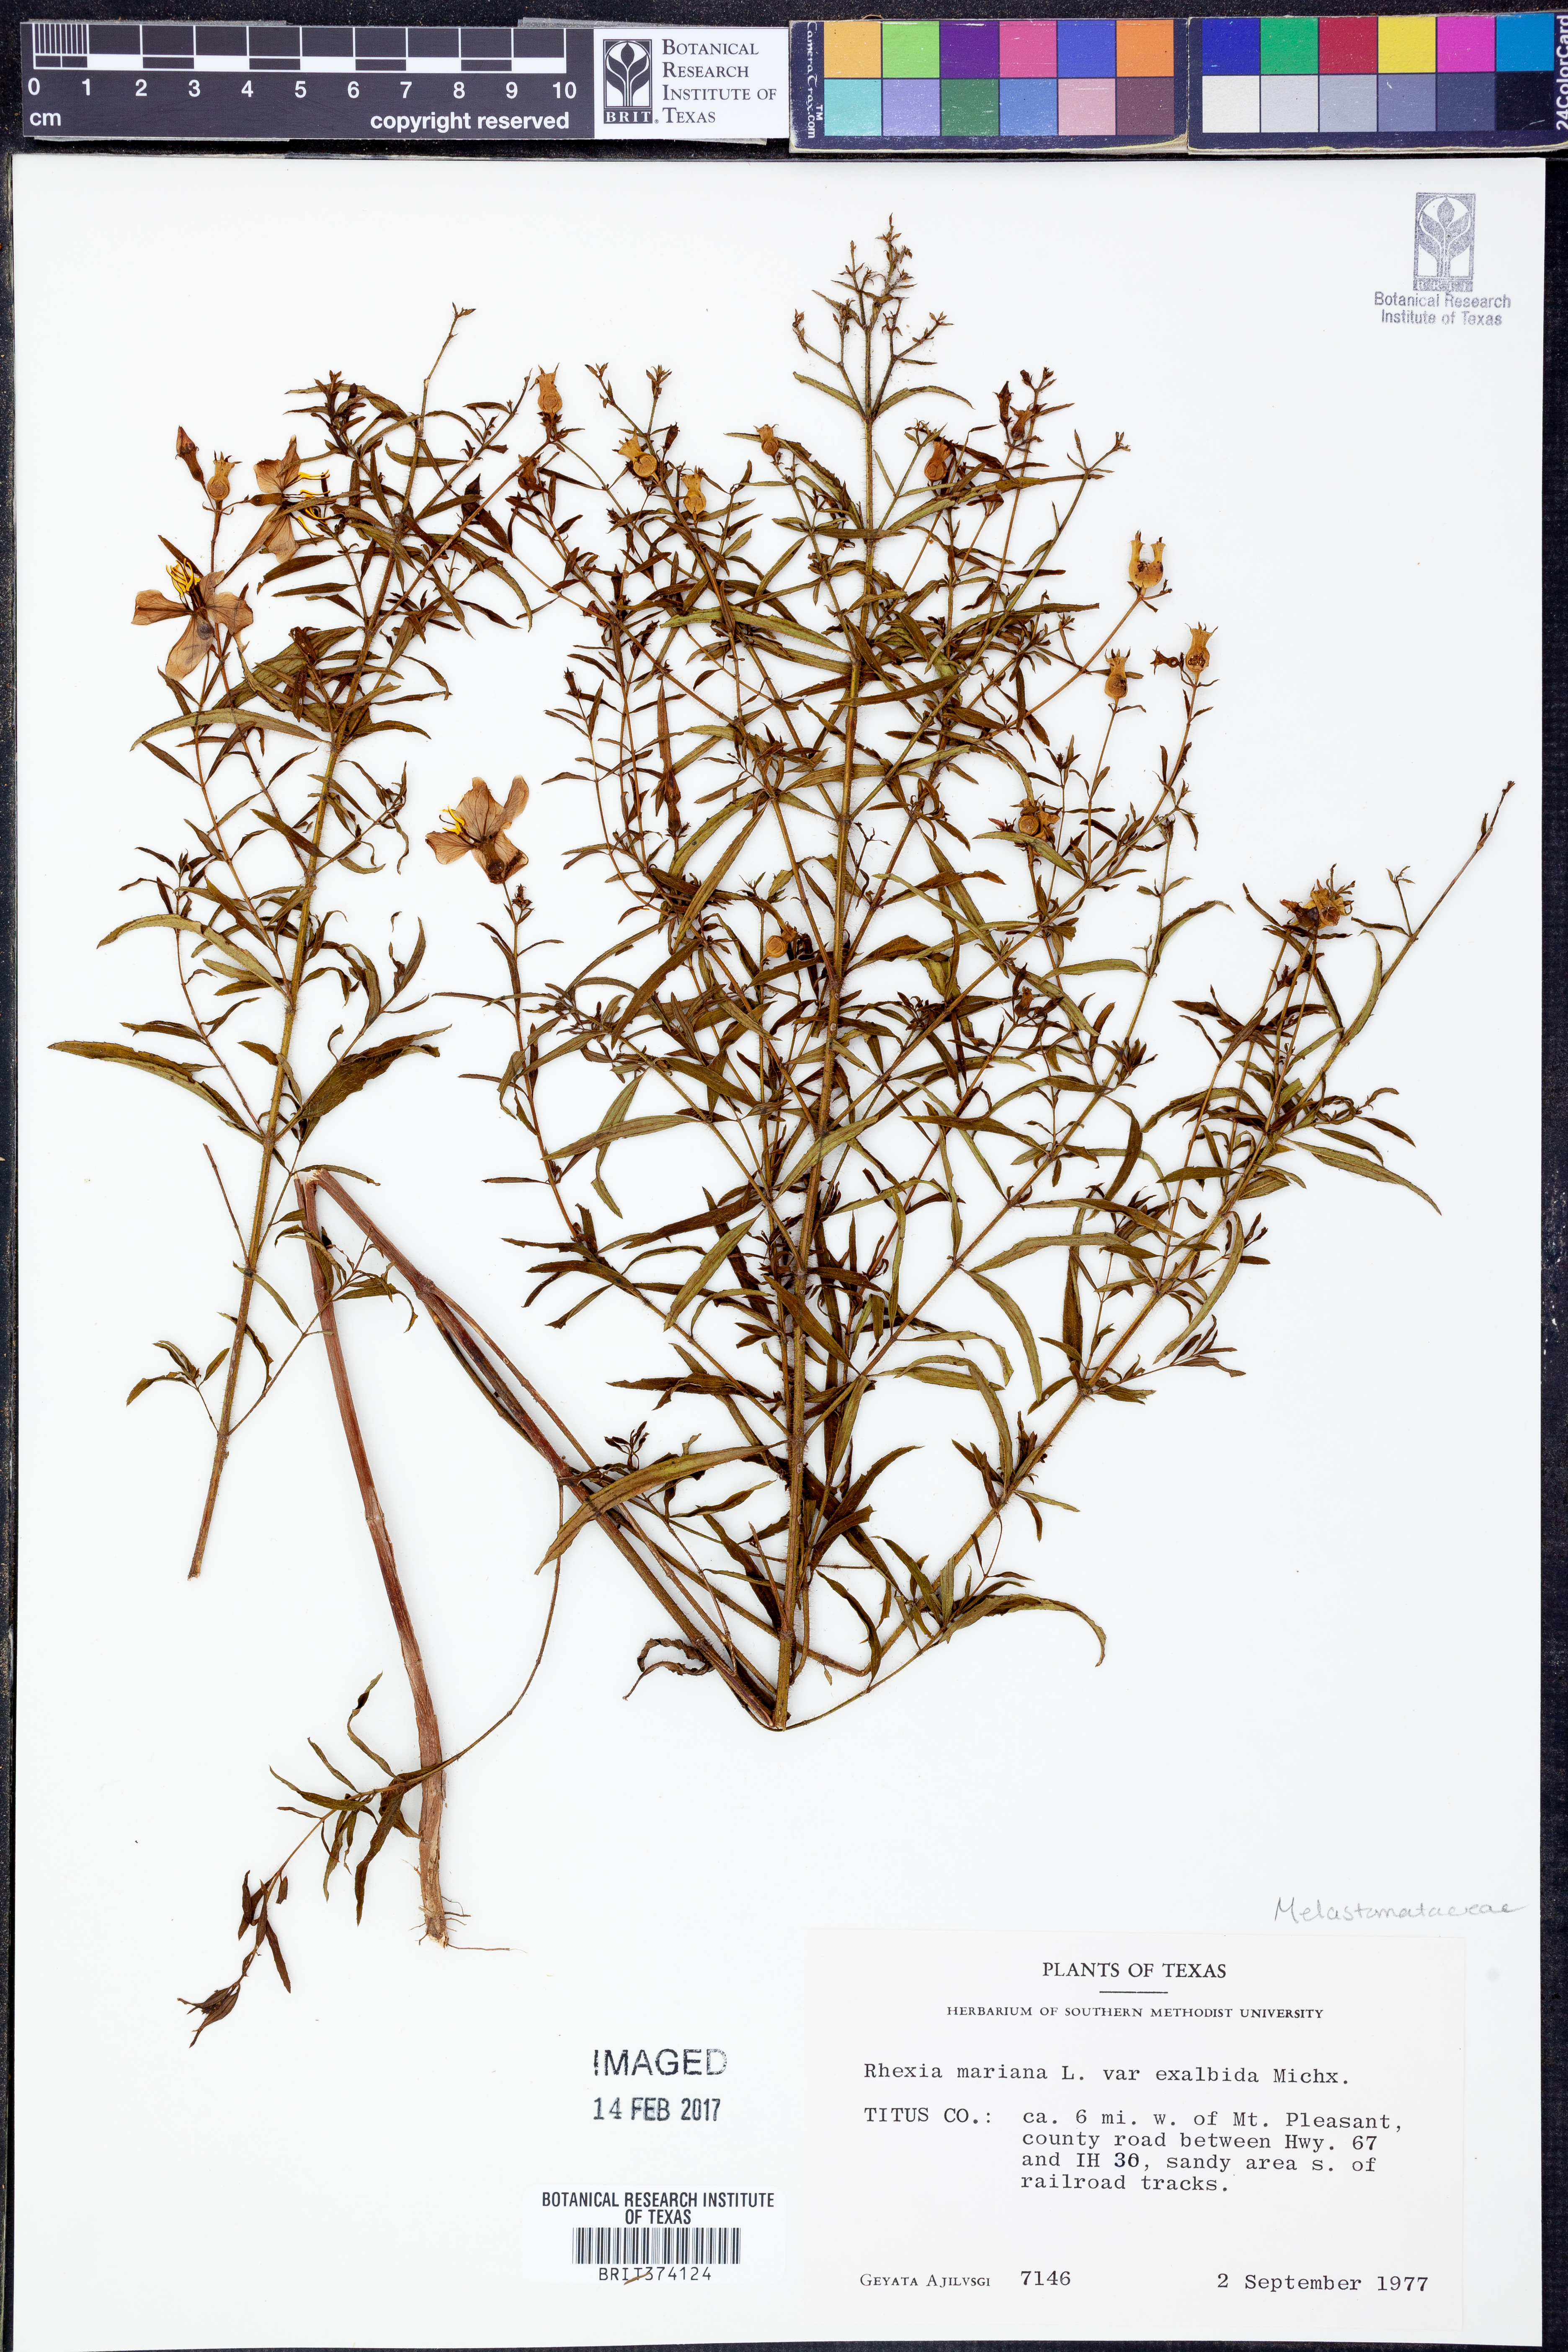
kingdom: Plantae
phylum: Tracheophyta
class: Magnoliopsida
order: Myrtales
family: Melastomataceae
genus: Rhexia
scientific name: Rhexia mariana
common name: Dull meadow-pitcher
